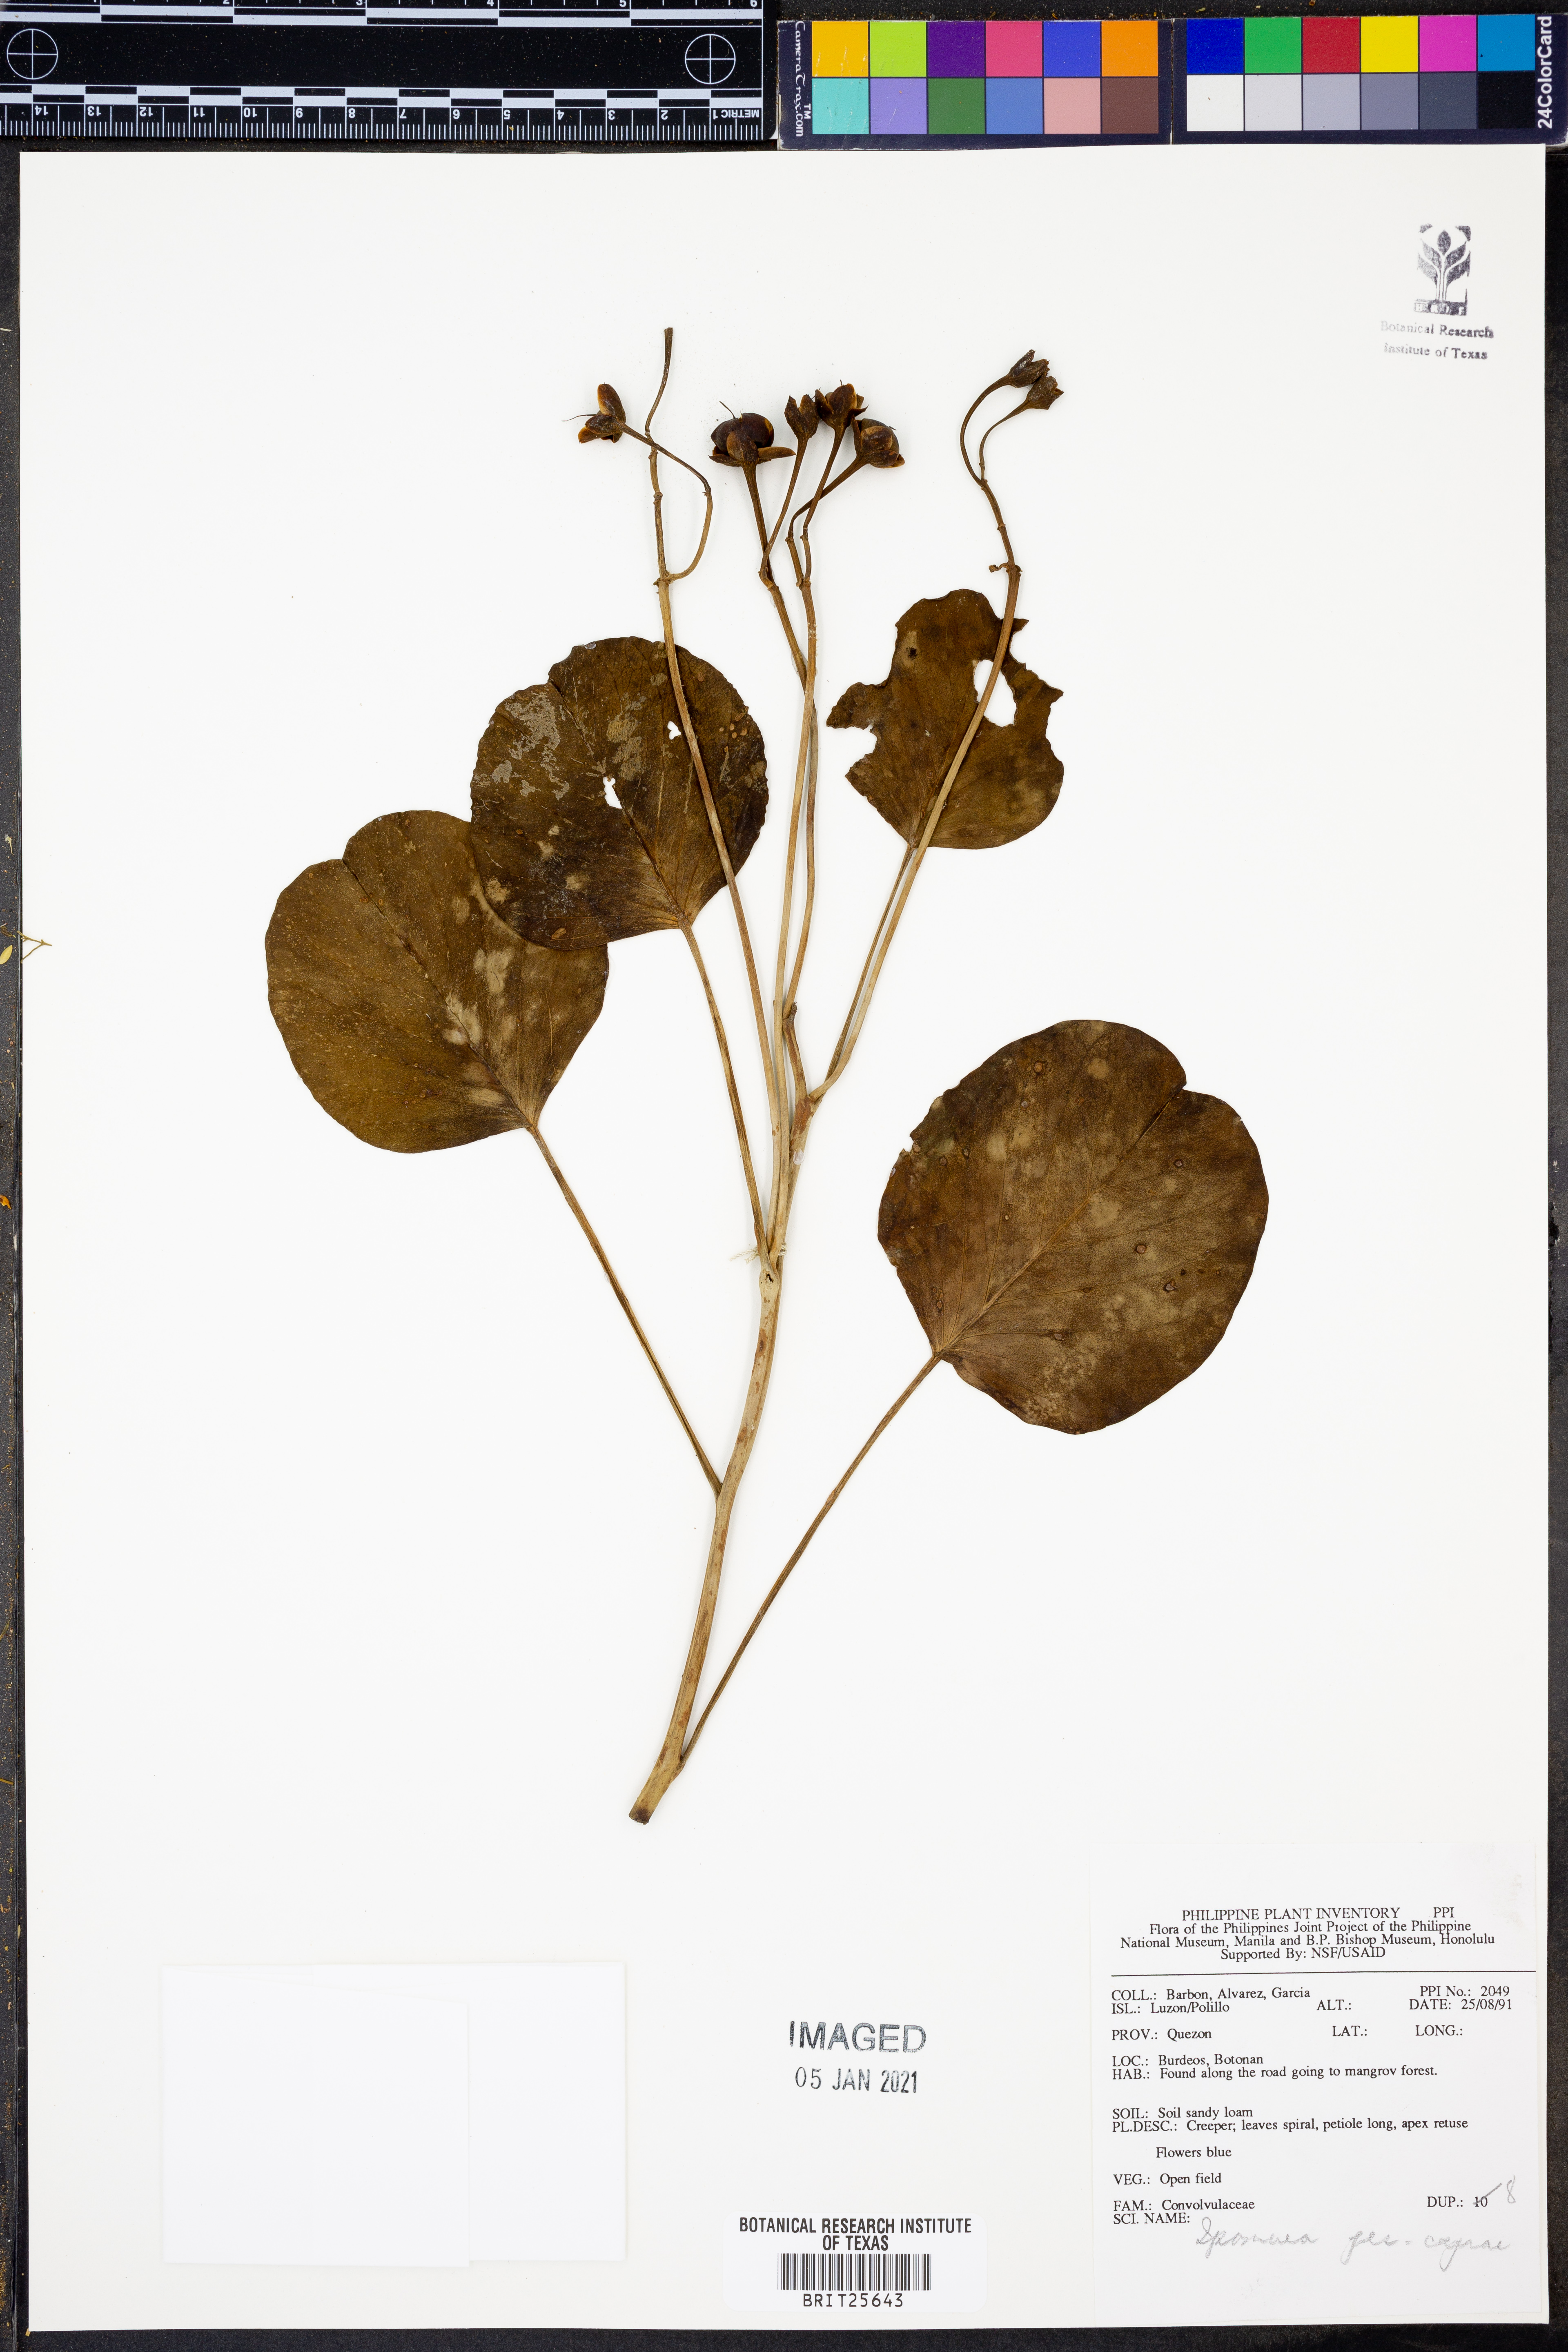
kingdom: Plantae
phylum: Tracheophyta
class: Magnoliopsida
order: Solanales
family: Convolvulaceae
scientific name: Convolvulaceae
